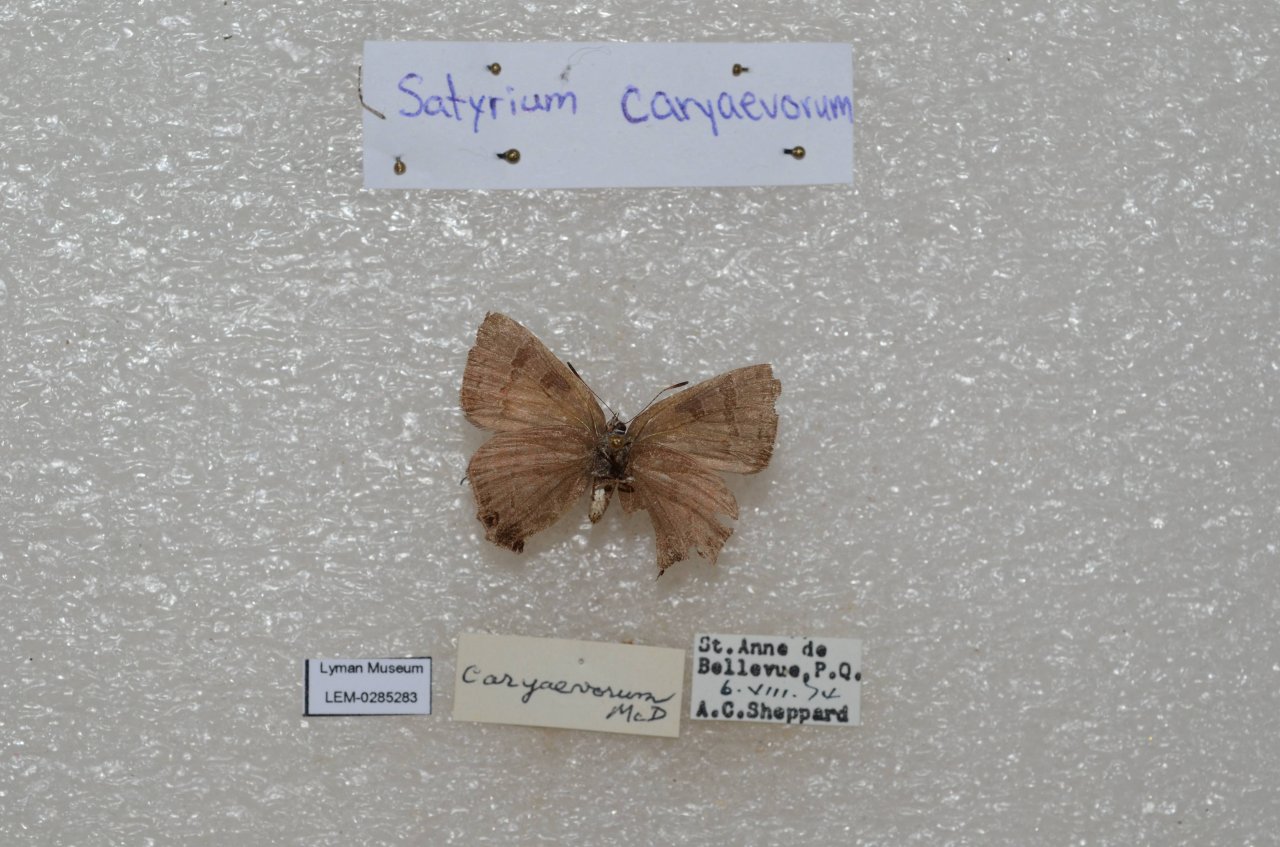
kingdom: Animalia
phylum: Arthropoda
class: Insecta
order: Lepidoptera
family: Lycaenidae
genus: Strymon
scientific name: Strymon caryaevorus
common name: Hickory Hairstreak
